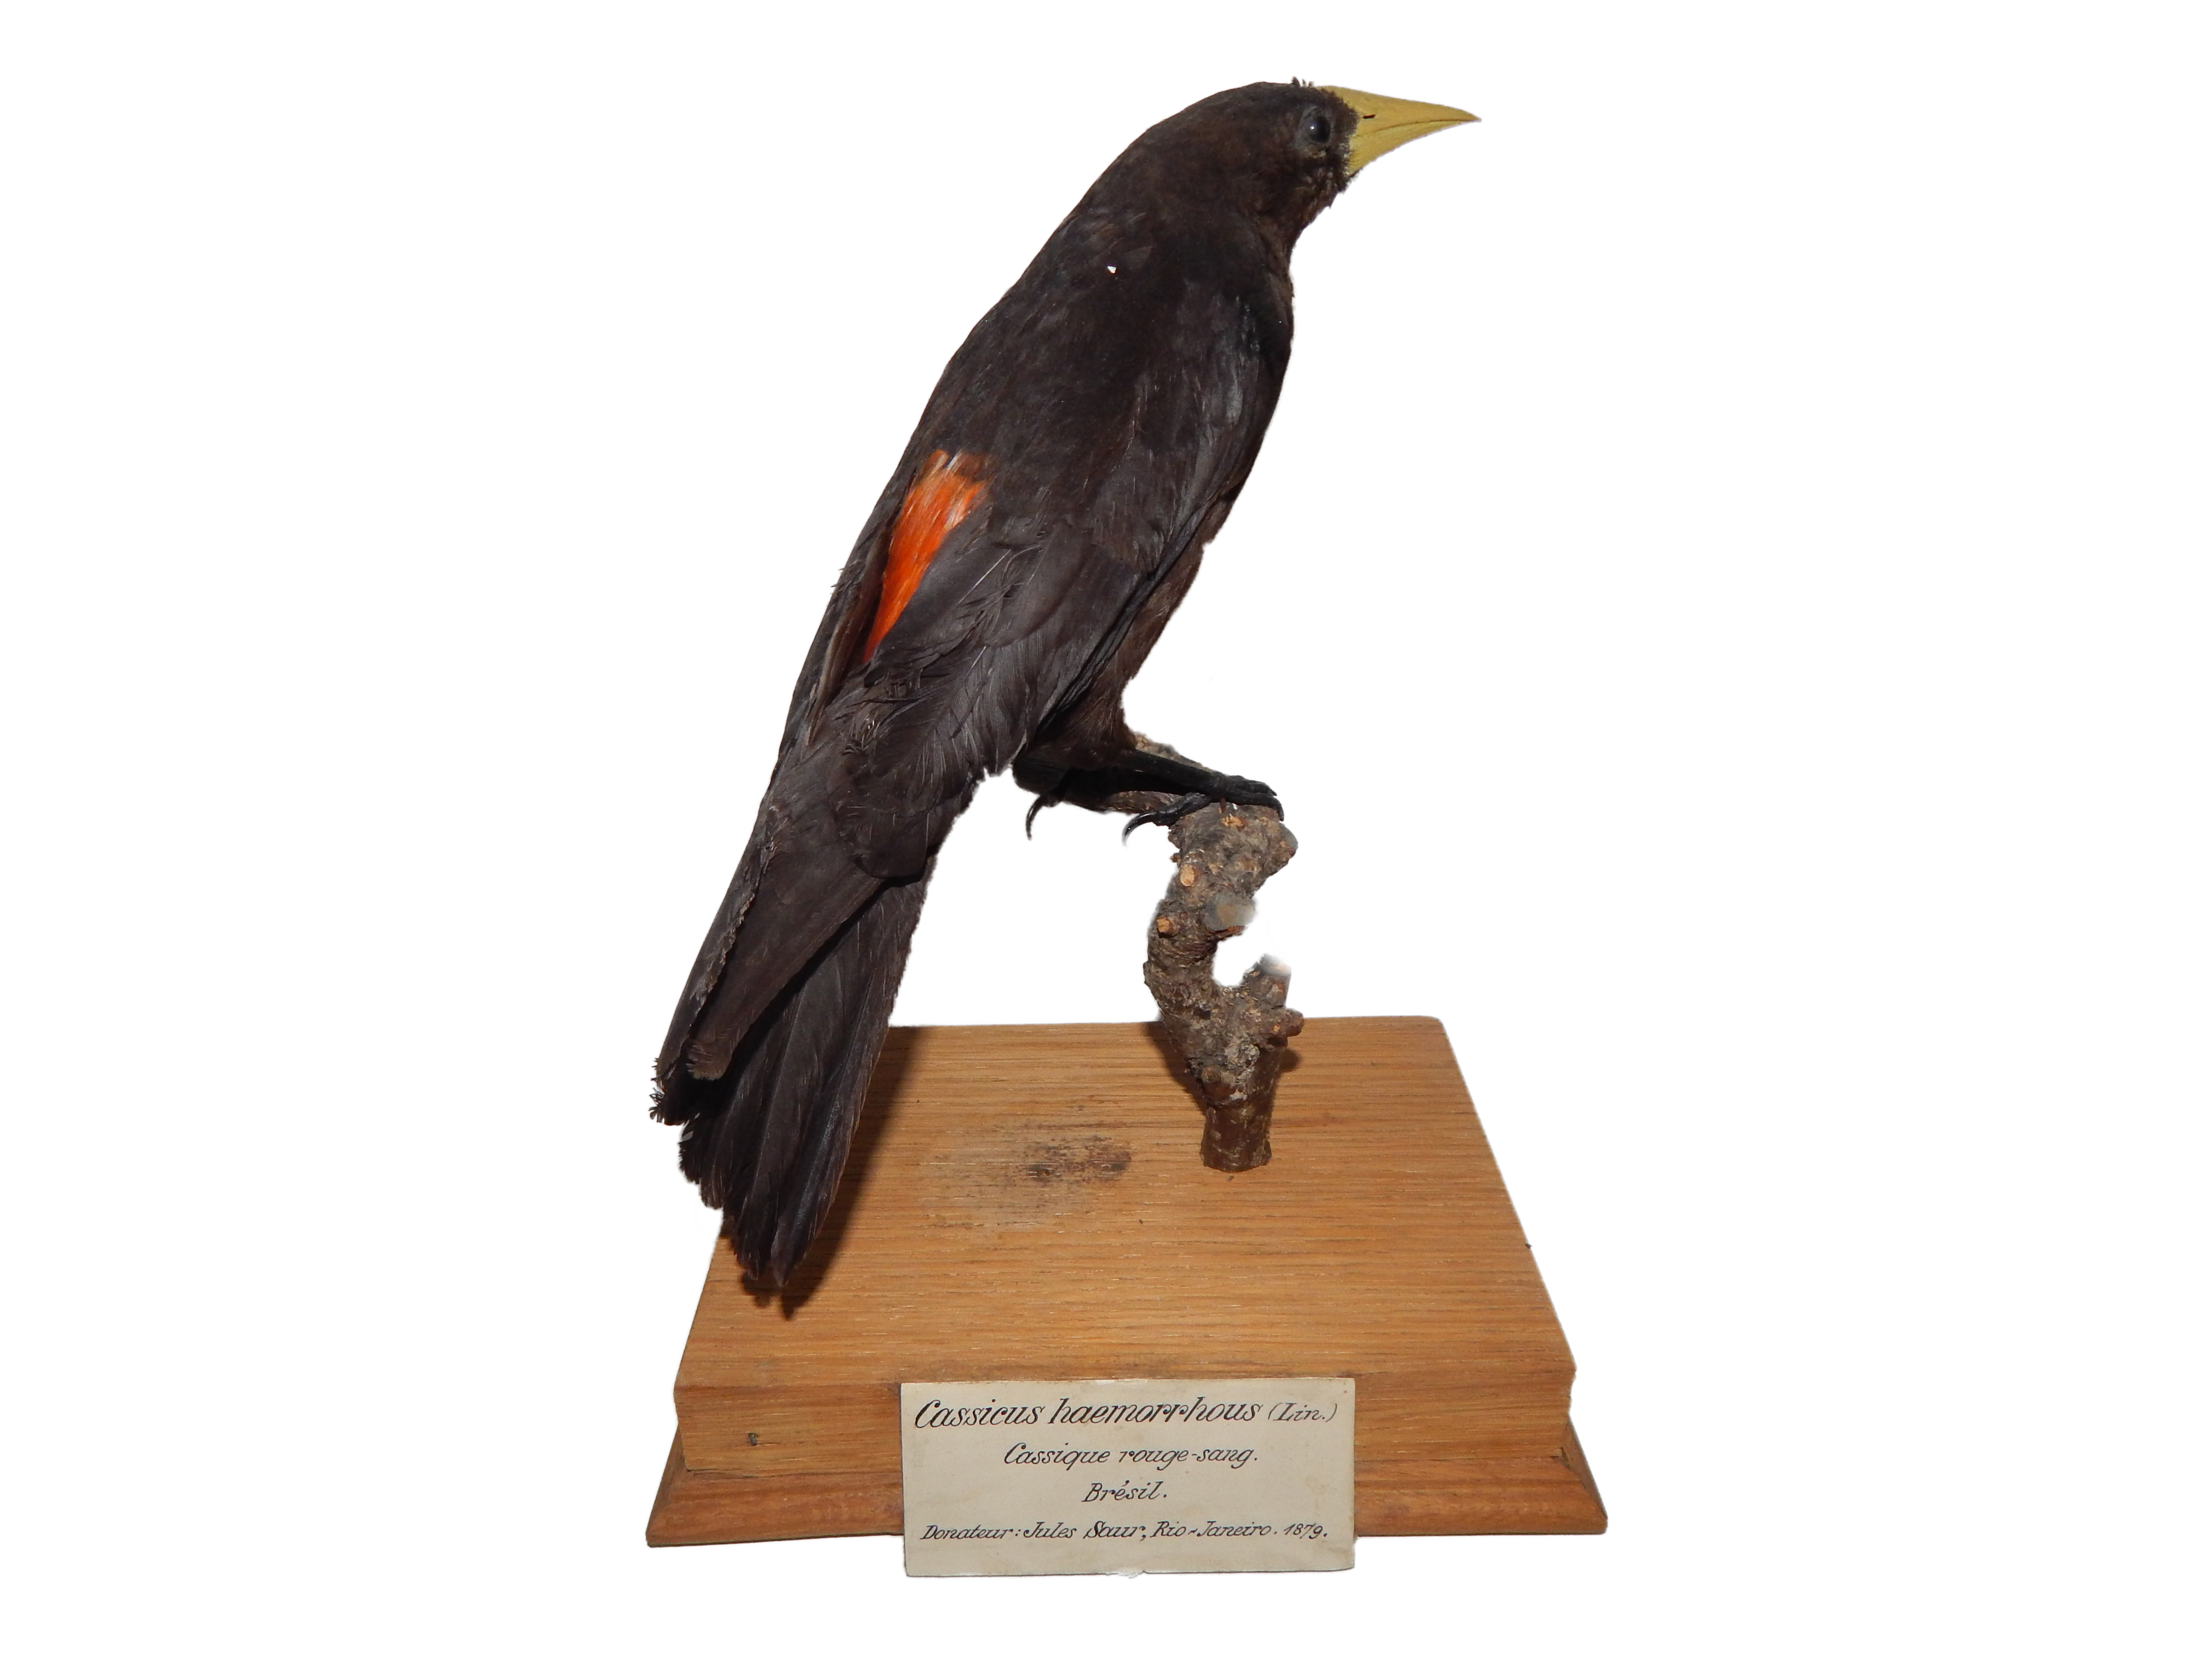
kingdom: Animalia
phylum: Chordata
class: Aves
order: Passeriformes
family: Icteridae
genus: Cacicus
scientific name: Cacicus haemorrhous
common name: Red-rumped cacique
